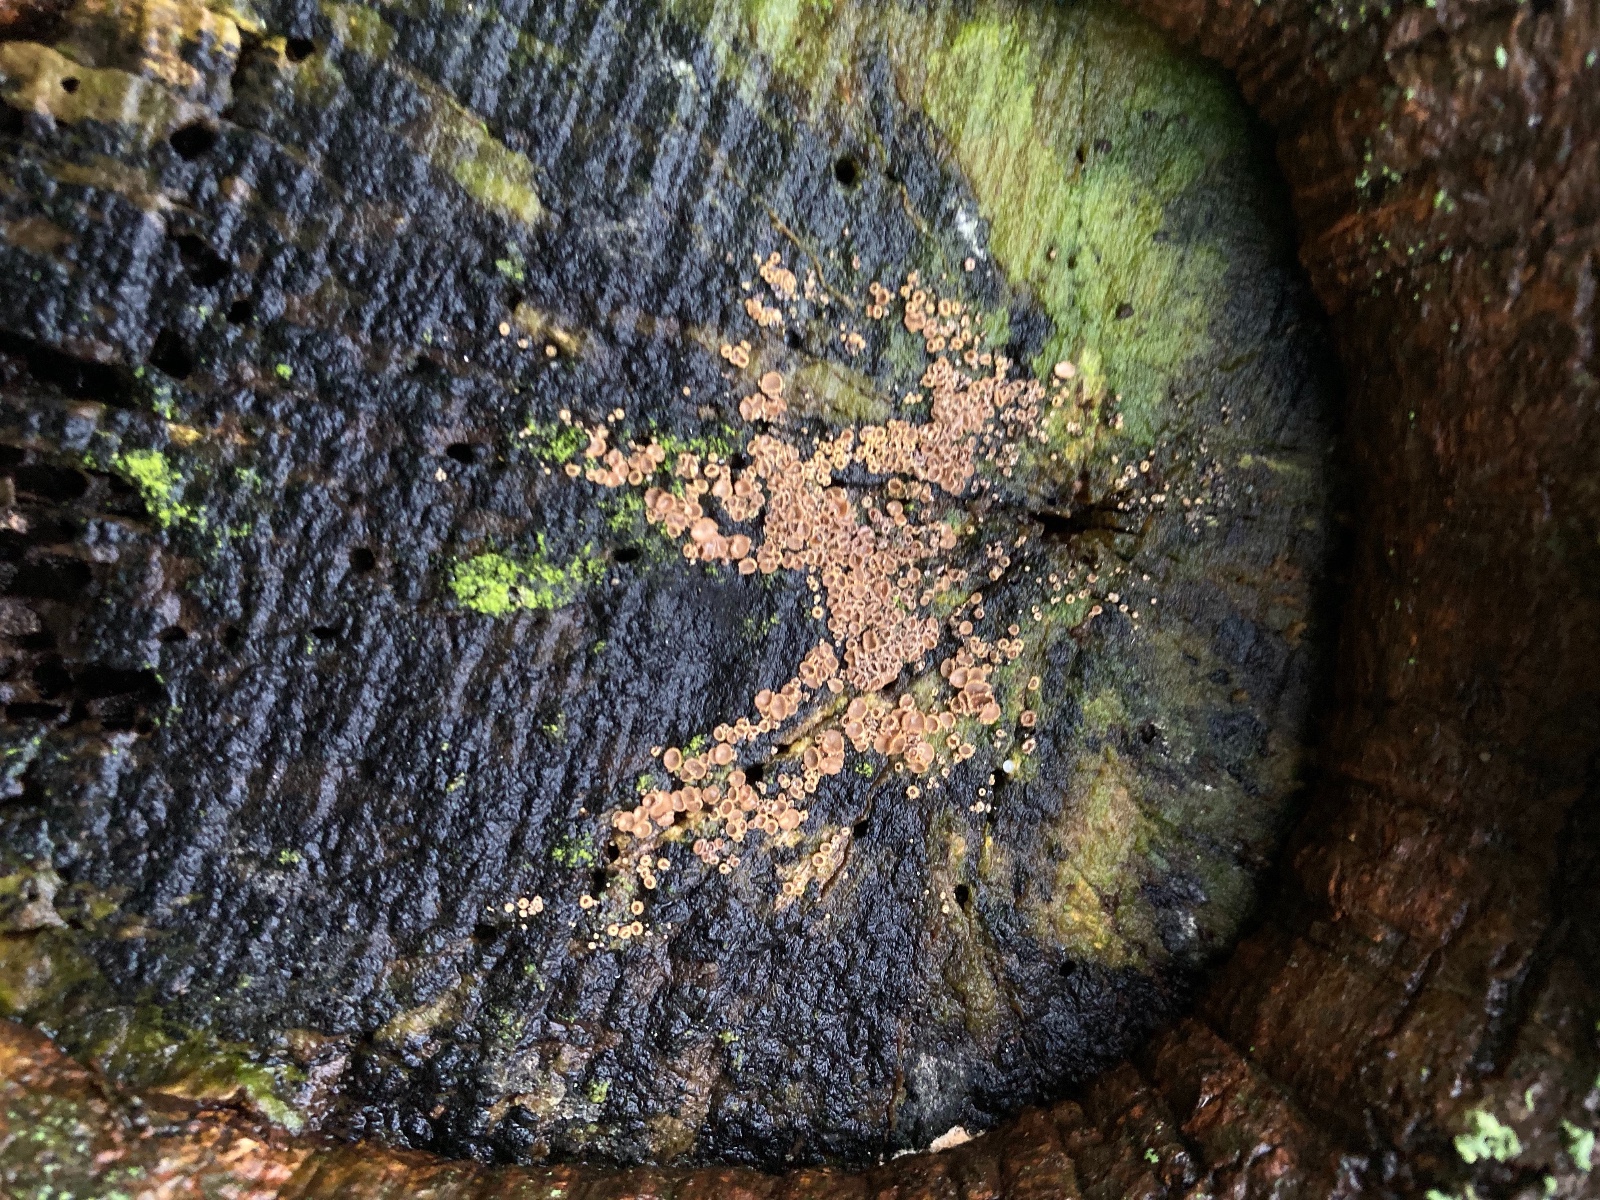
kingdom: Fungi
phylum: Ascomycota
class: Leotiomycetes
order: Helotiales
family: Lachnaceae
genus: Trichopeziza
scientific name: Trichopeziza subsulphurea
